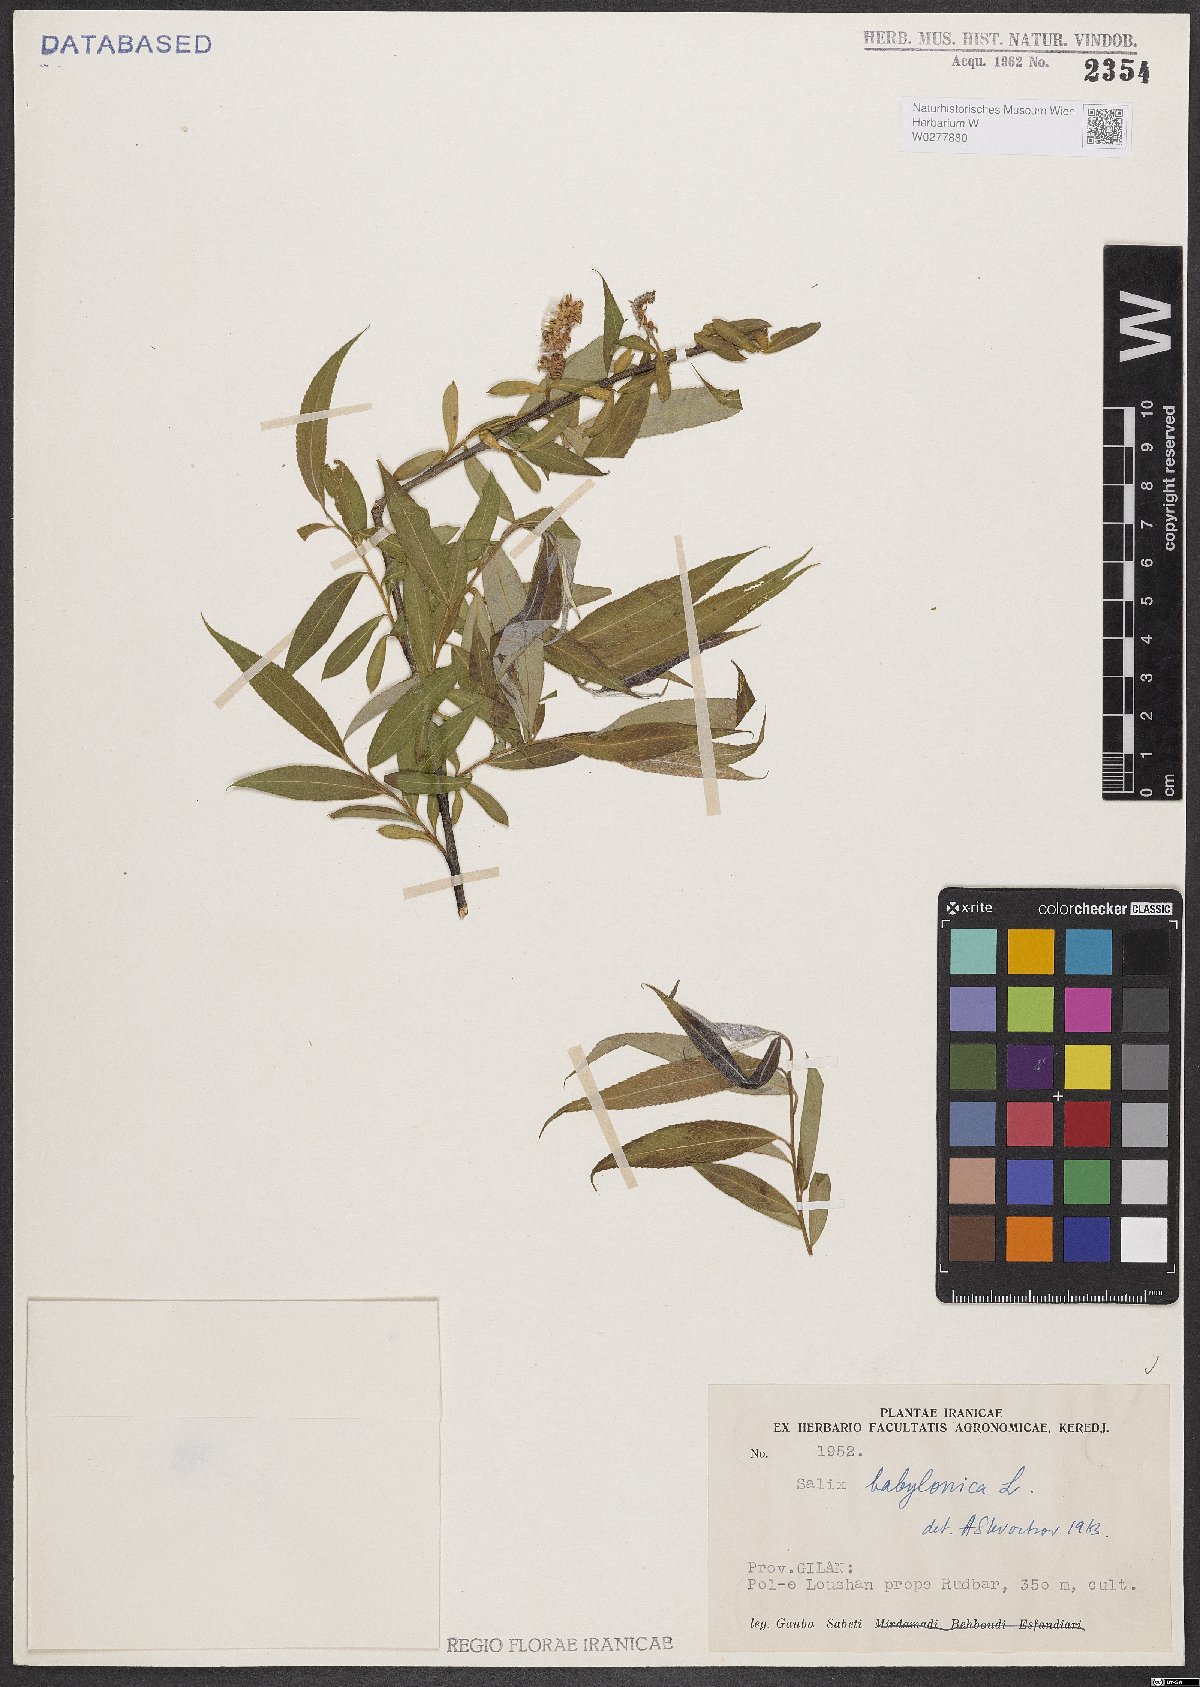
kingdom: Plantae
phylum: Tracheophyta
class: Magnoliopsida
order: Malpighiales
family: Salicaceae
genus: Salix
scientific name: Salix babylonica
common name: Weeping willow
